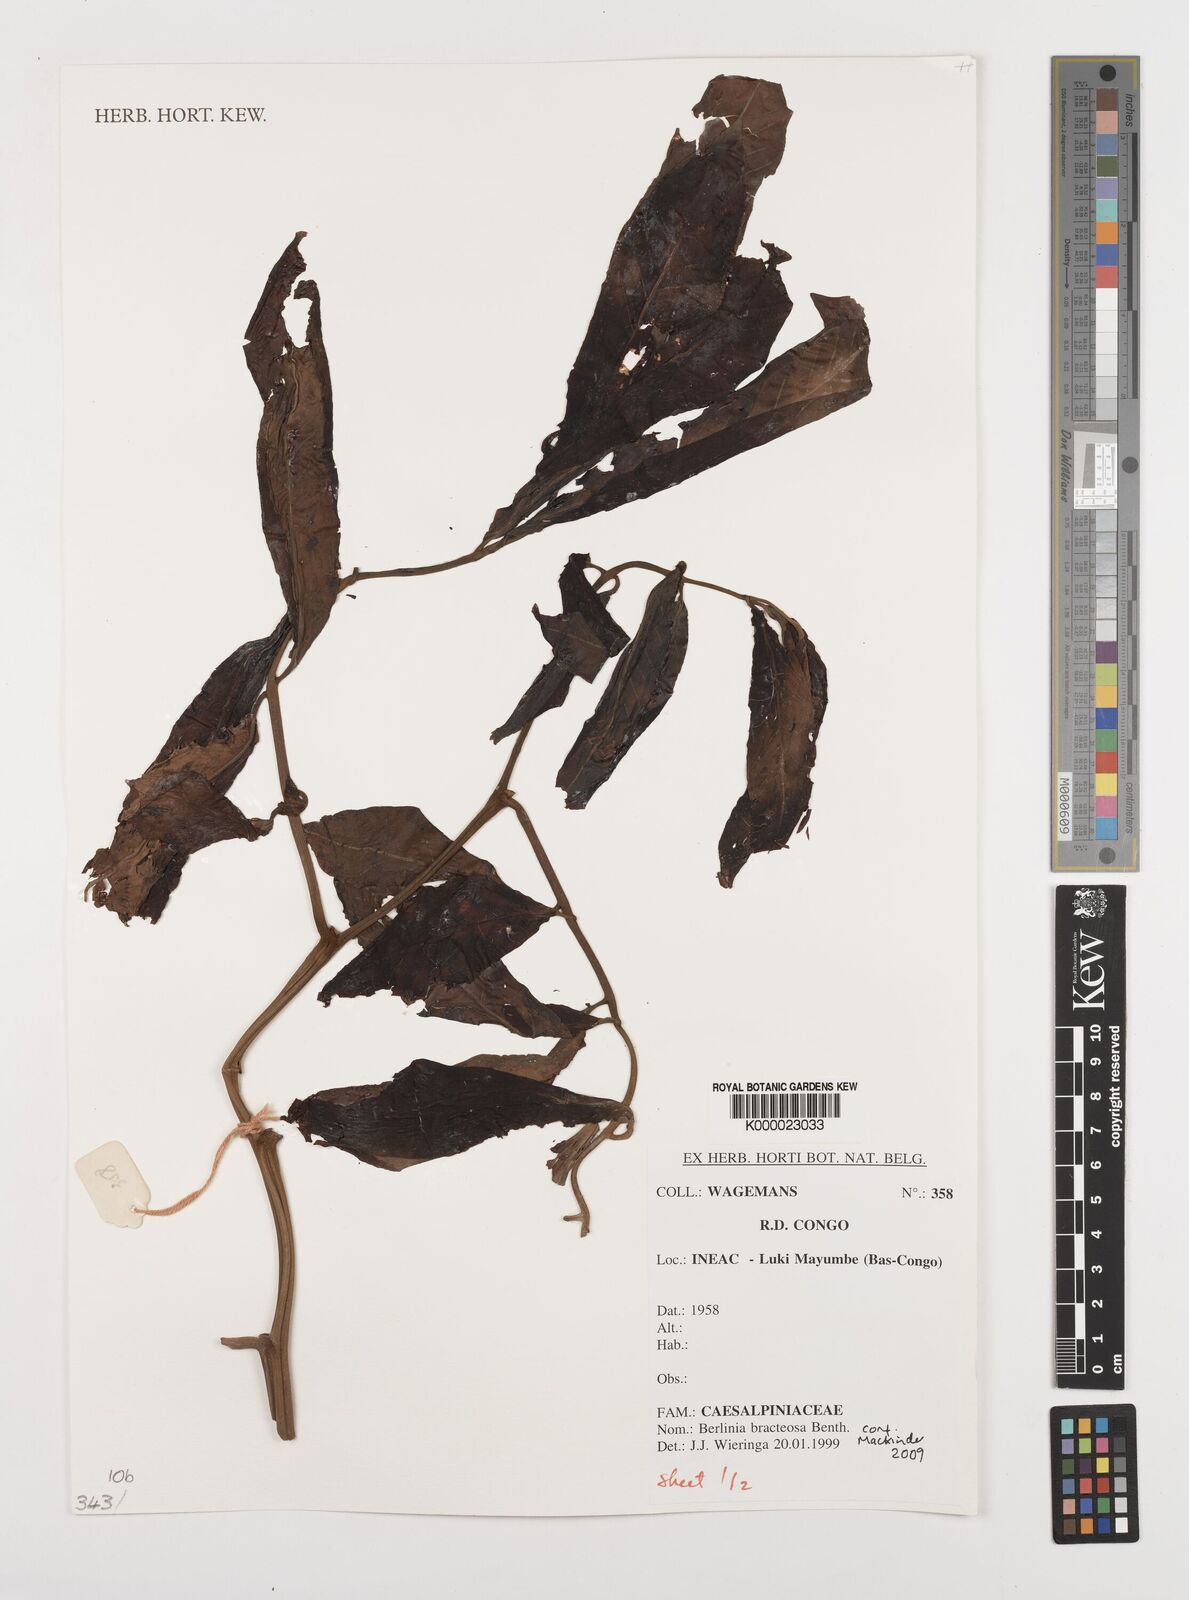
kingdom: Plantae
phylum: Tracheophyta
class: Magnoliopsida
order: Fabales
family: Fabaceae
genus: Berlinia
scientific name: Berlinia bracteosa
